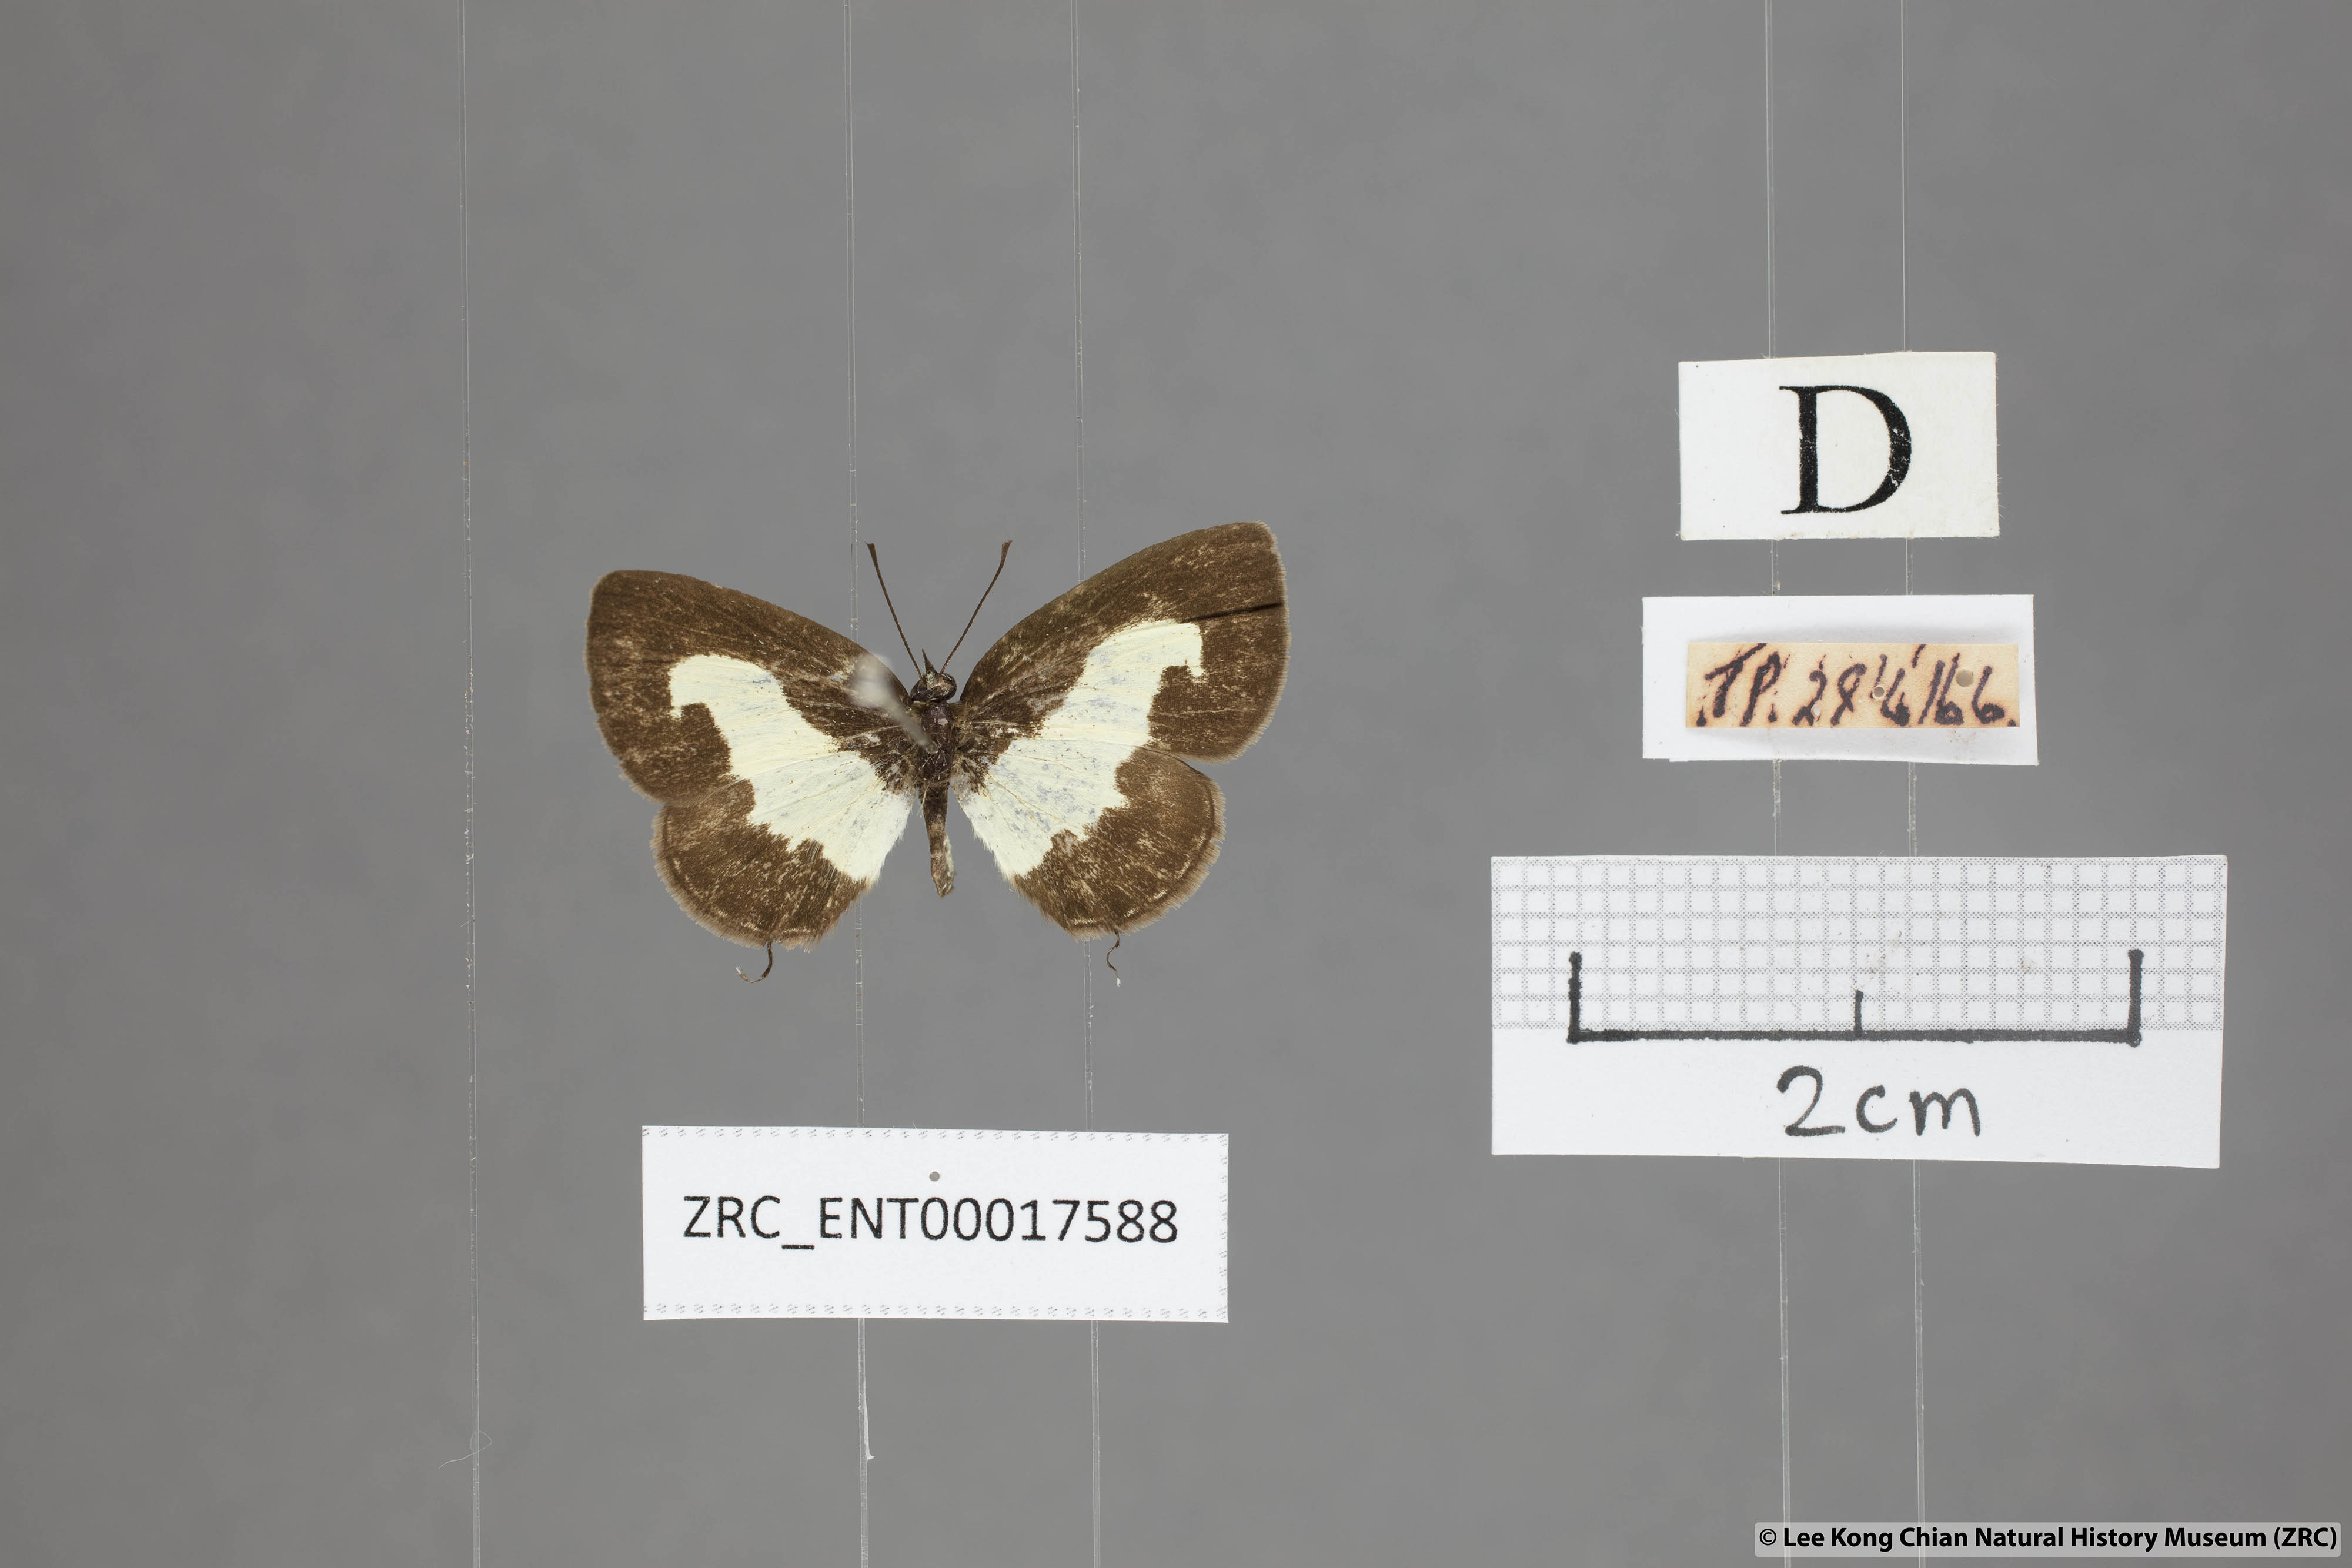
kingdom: Animalia
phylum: Arthropoda
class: Insecta
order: Lepidoptera
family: Lycaenidae
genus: Caleta
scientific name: Caleta roxus
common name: Straight pierrot
